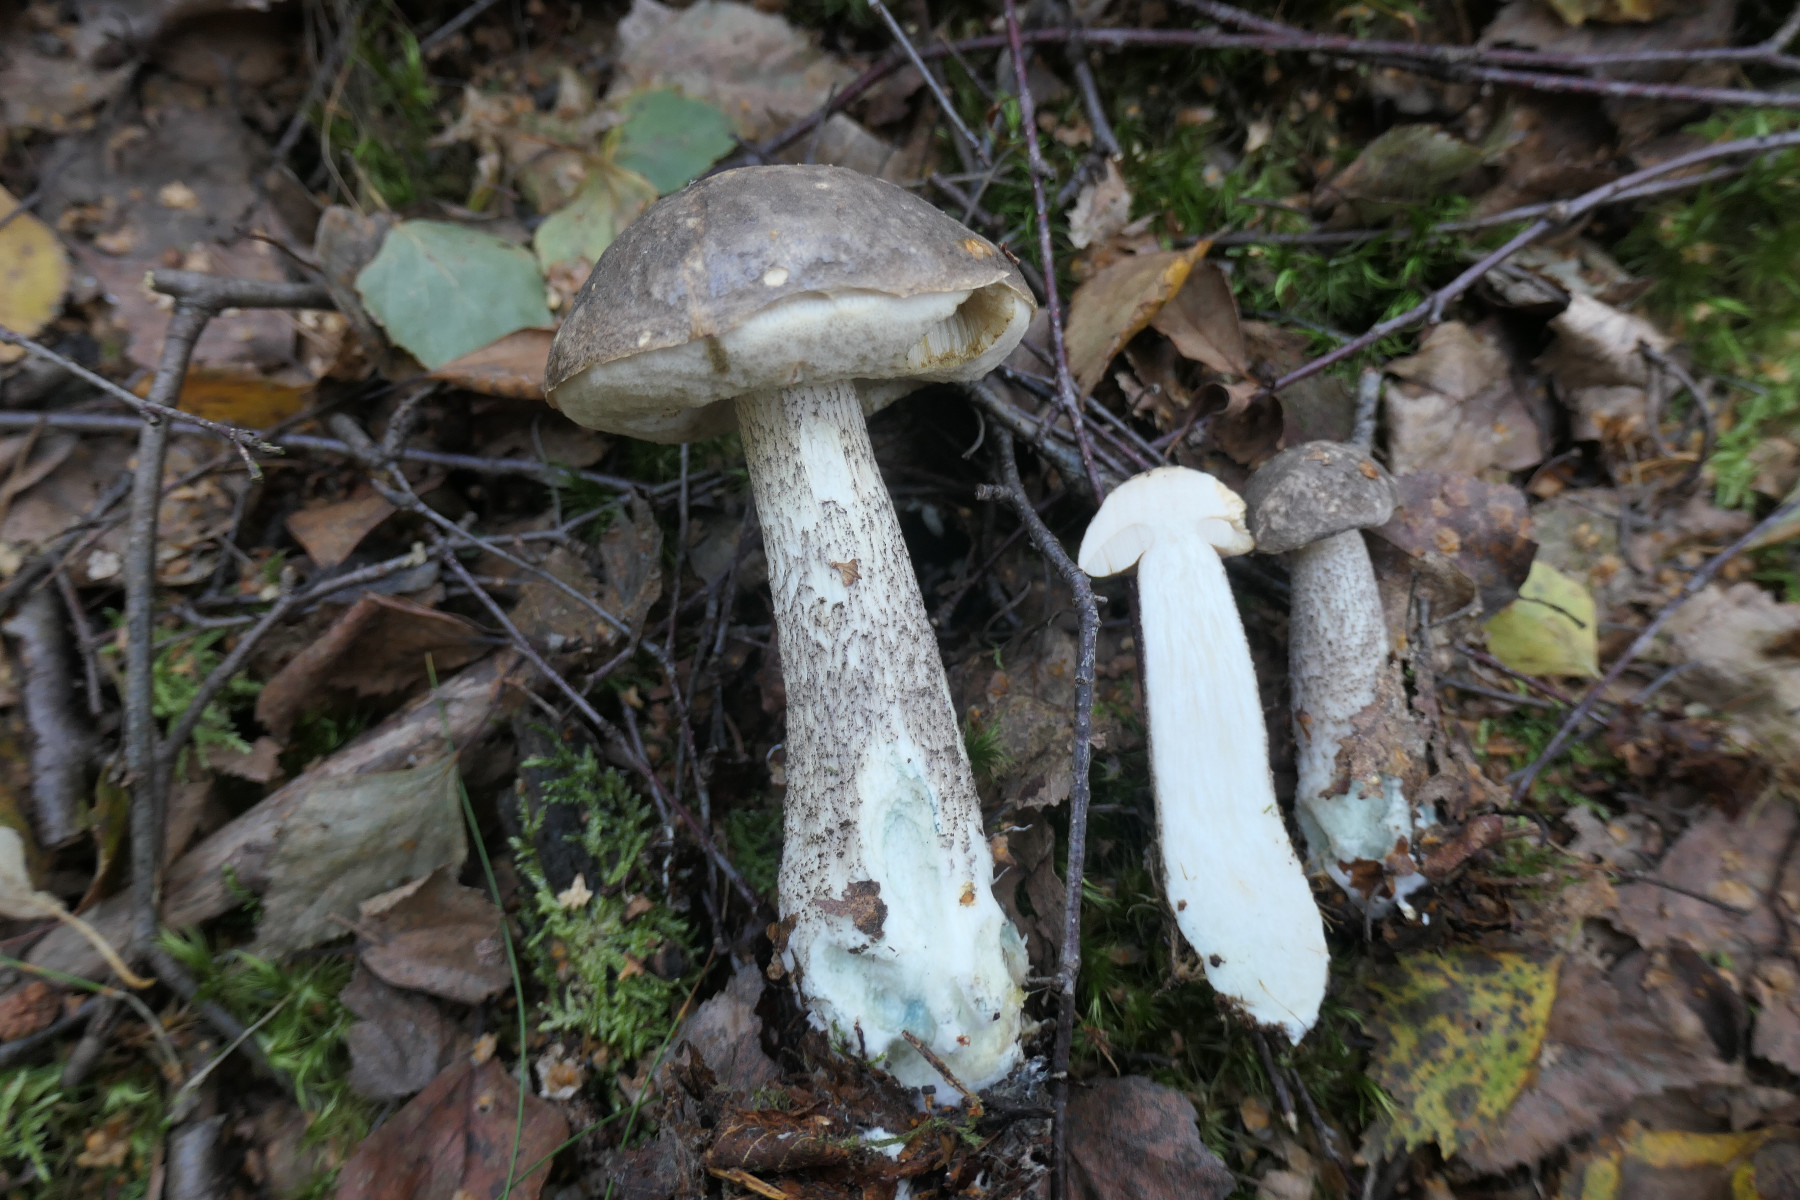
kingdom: Fungi
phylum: Basidiomycota
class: Agaricomycetes
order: Boletales
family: Boletaceae
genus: Leccinum
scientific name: Leccinum variicolor
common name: flammet skælrørhat
